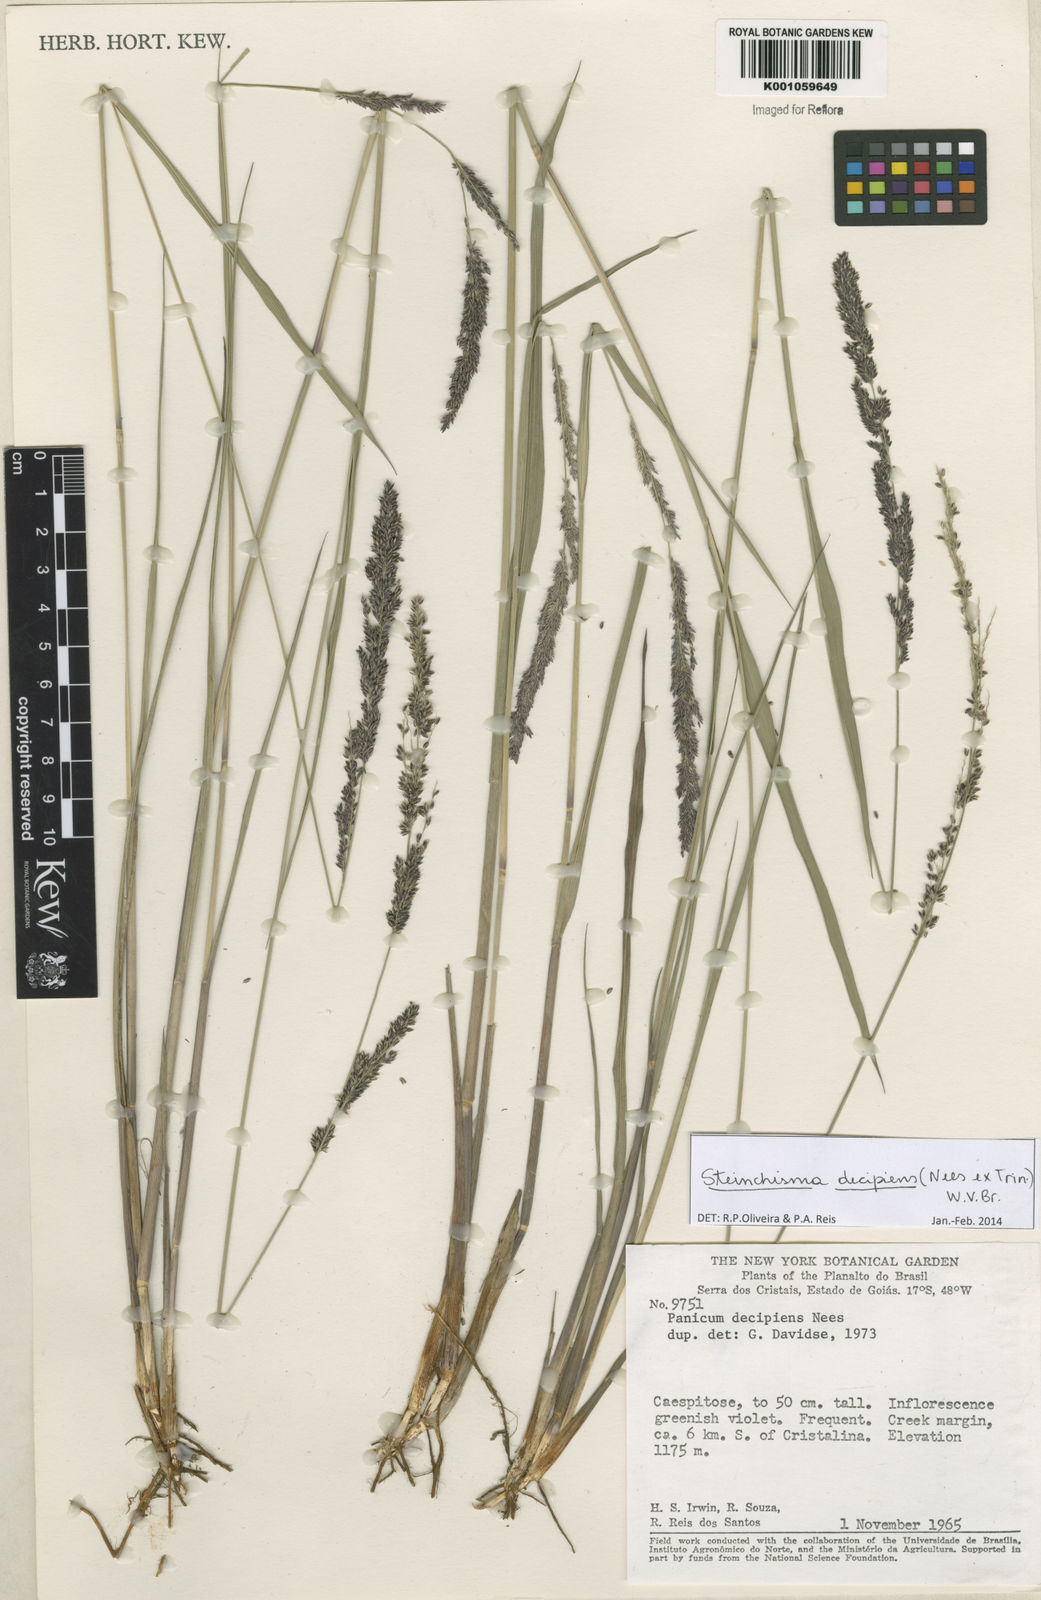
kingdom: Plantae
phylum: Tracheophyta
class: Liliopsida
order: Poales
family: Poaceae
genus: Steinchisma
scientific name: Steinchisma decipiens
